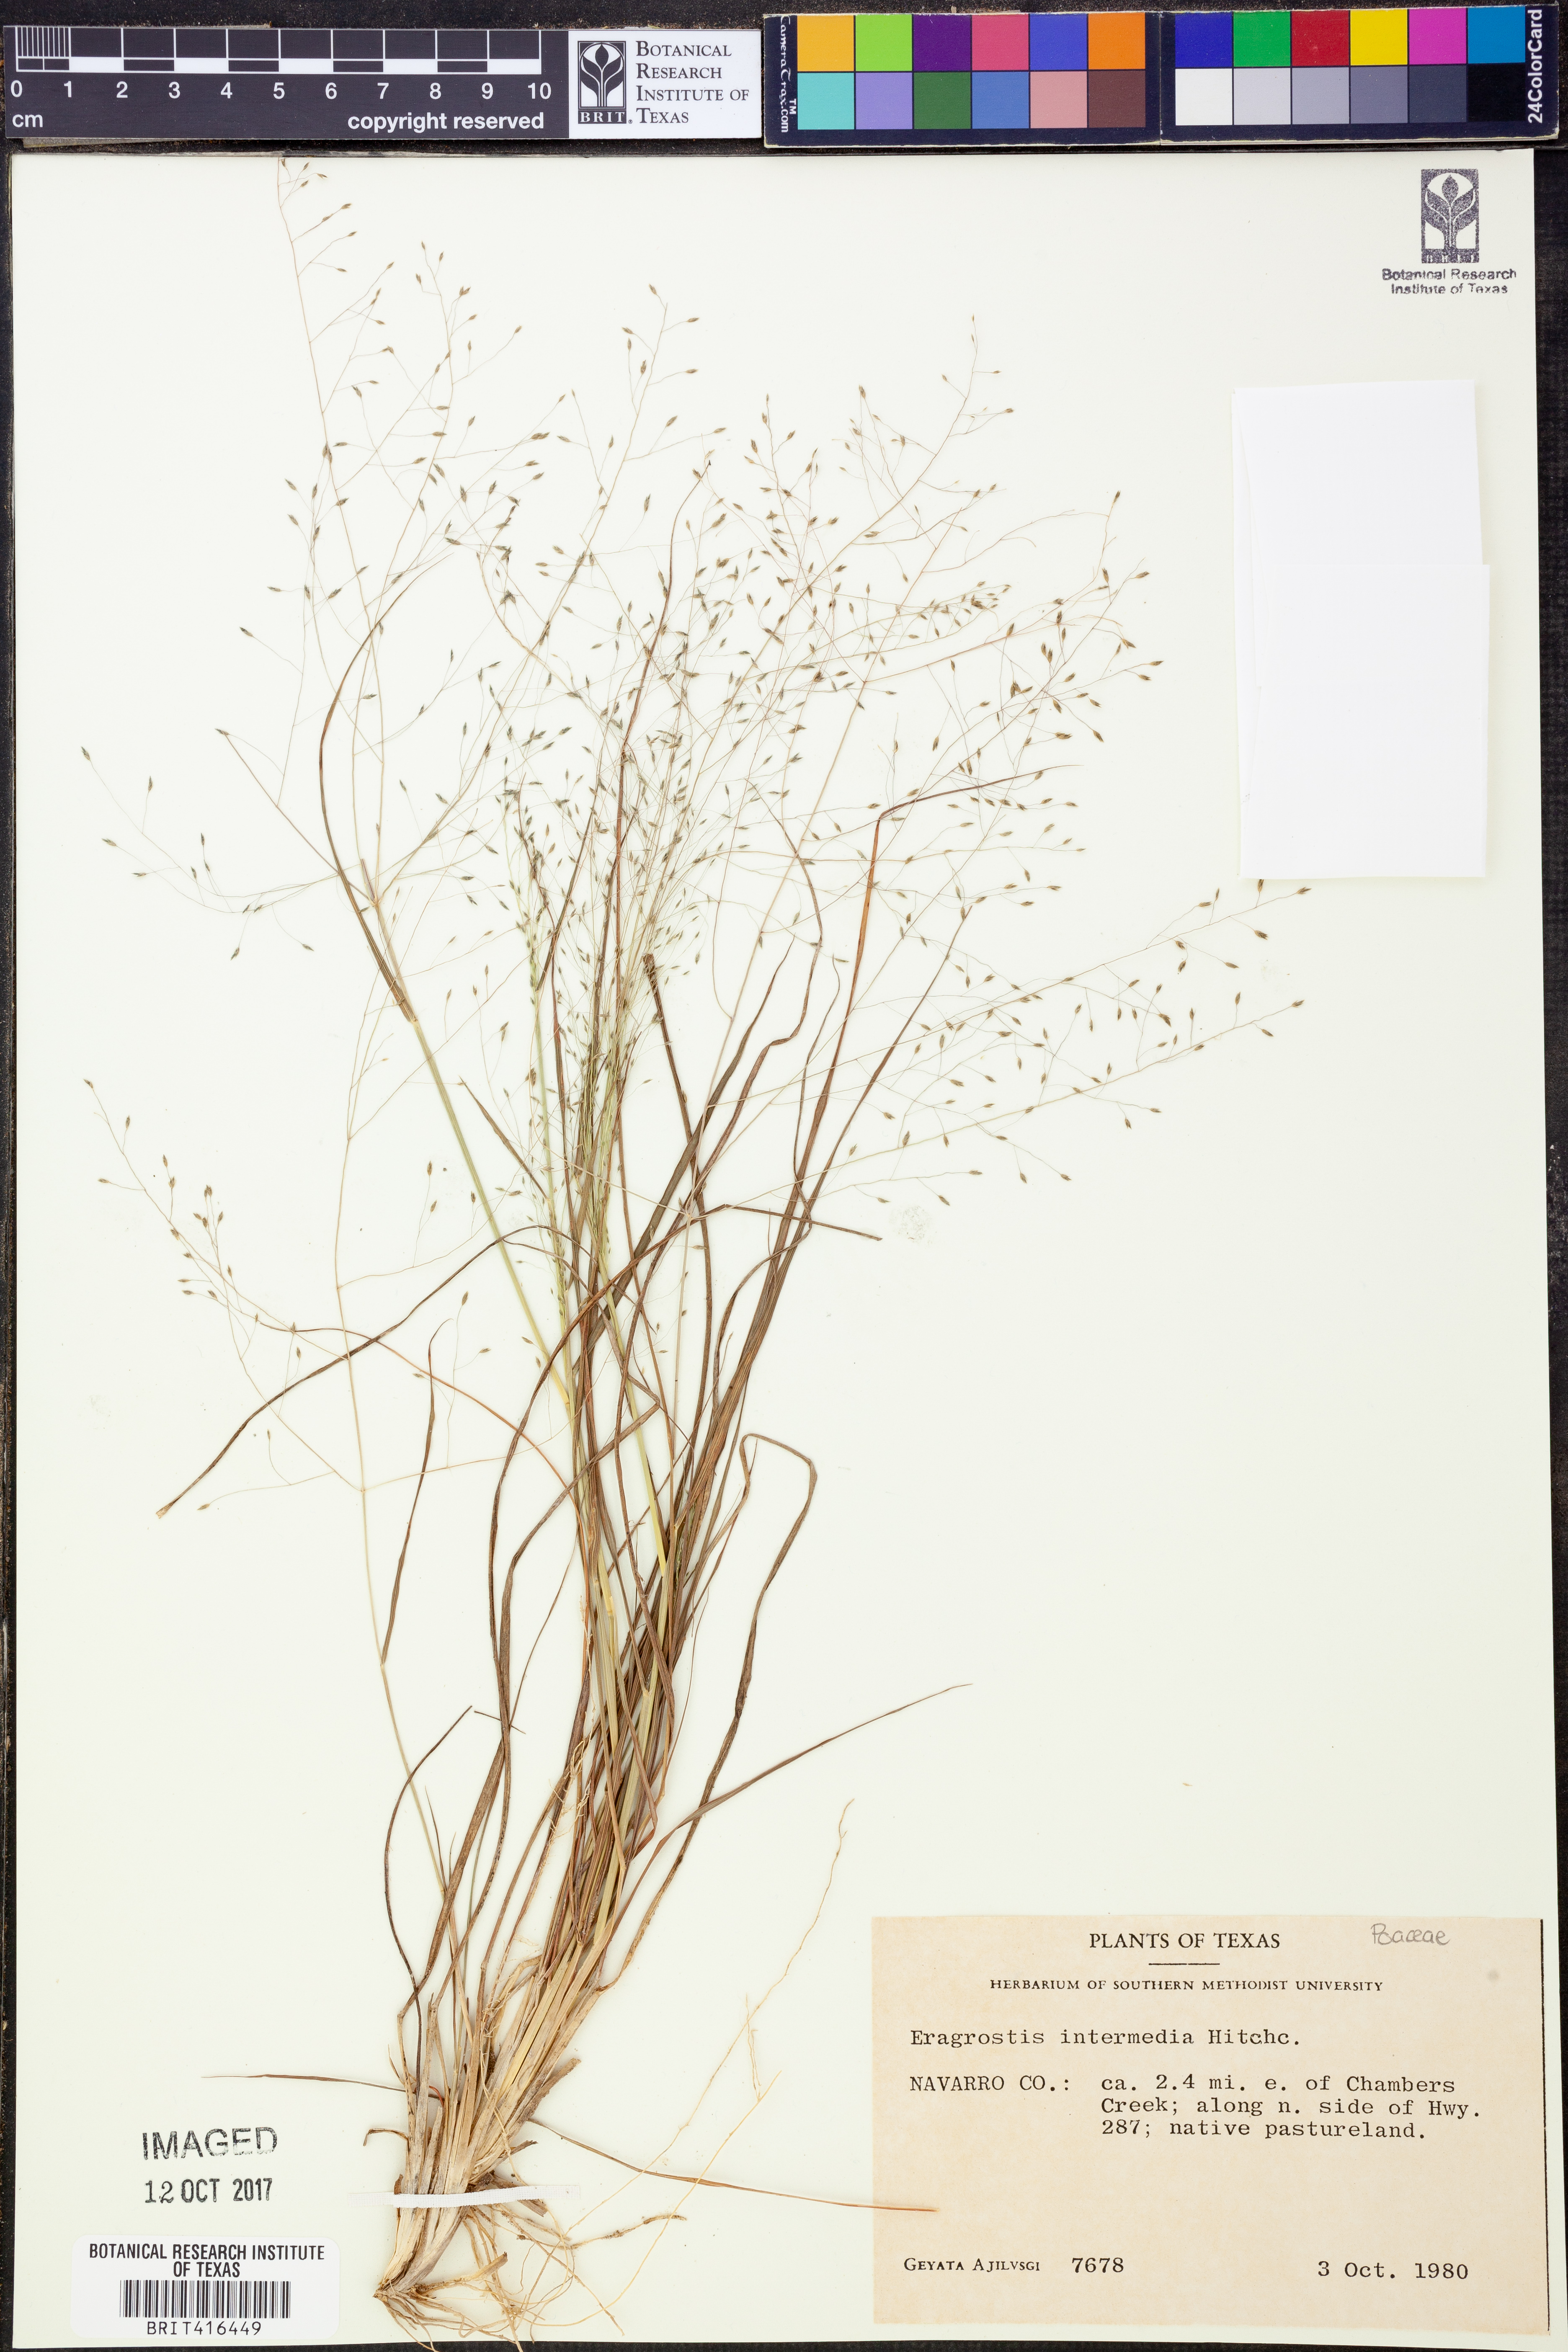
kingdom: Plantae
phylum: Tracheophyta
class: Liliopsida
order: Poales
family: Poaceae
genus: Eragrostis
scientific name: Eragrostis intermedia
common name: Plains love grass
